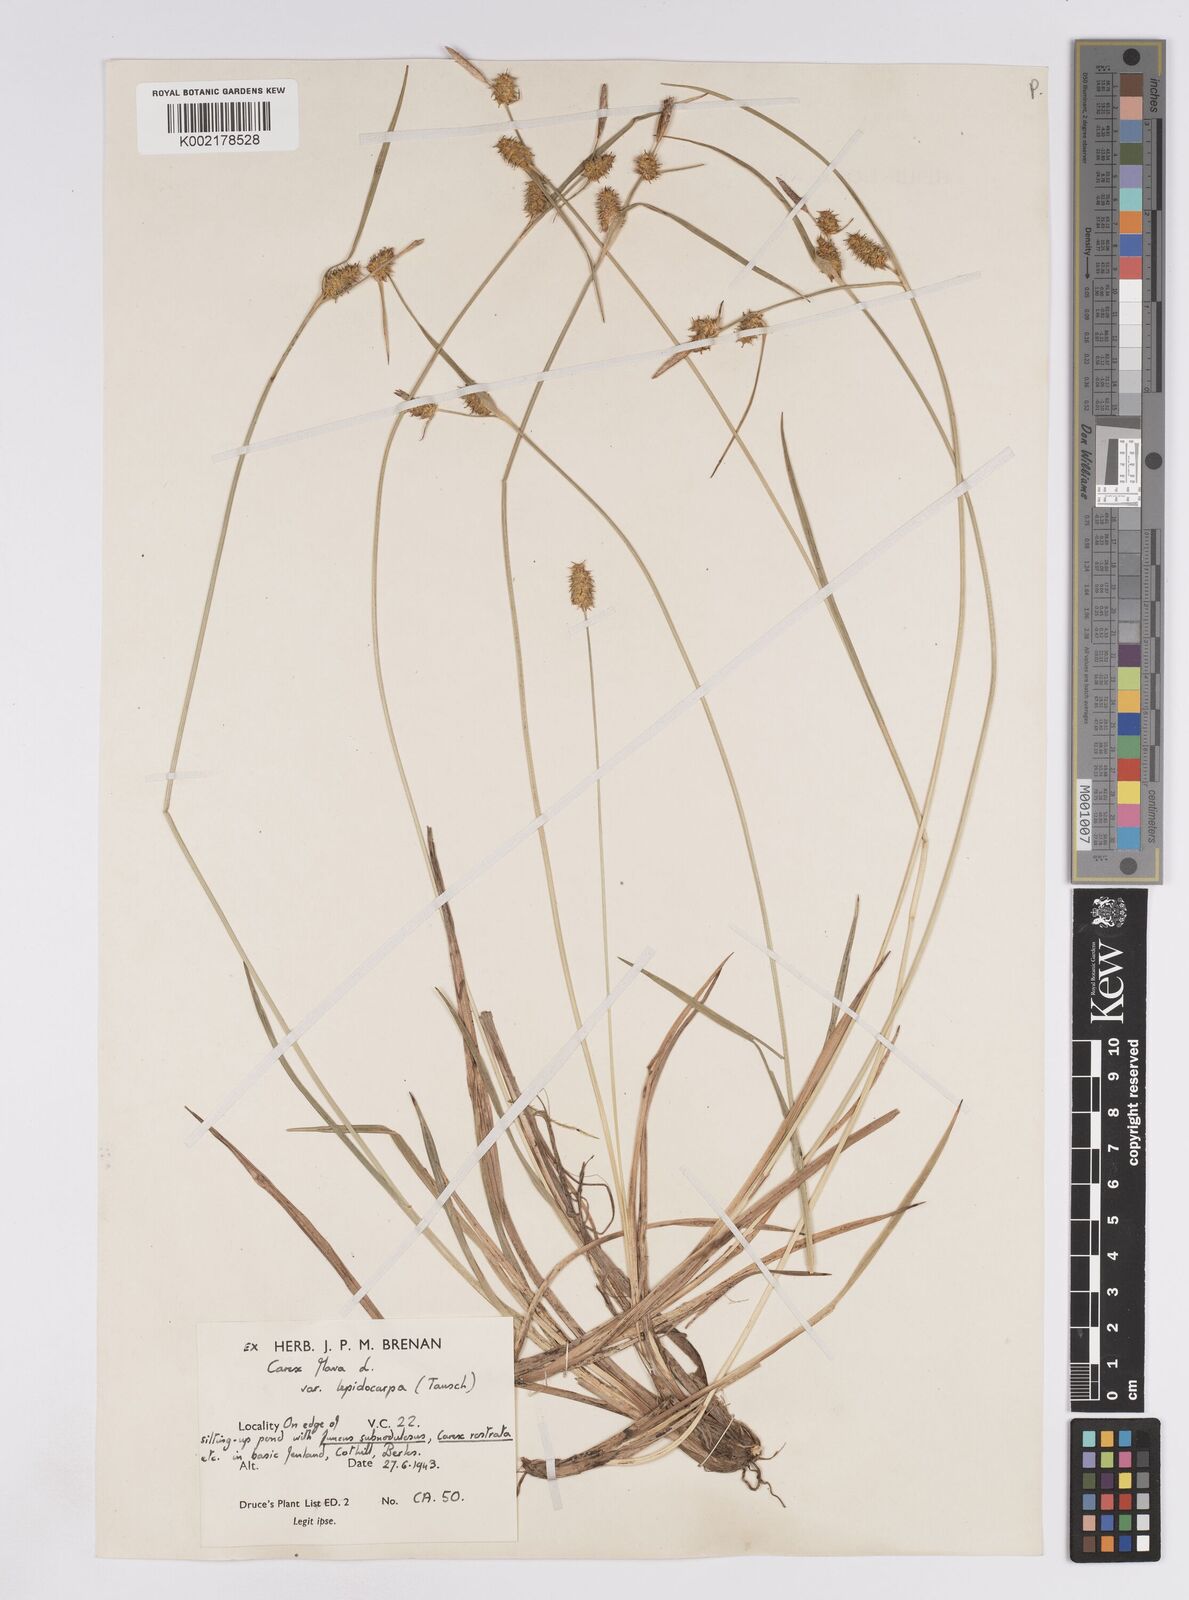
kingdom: Plantae
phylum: Tracheophyta
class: Liliopsida
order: Poales
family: Cyperaceae
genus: Carex
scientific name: Carex lepidocarpa
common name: Long-stalked yellow-sedge
